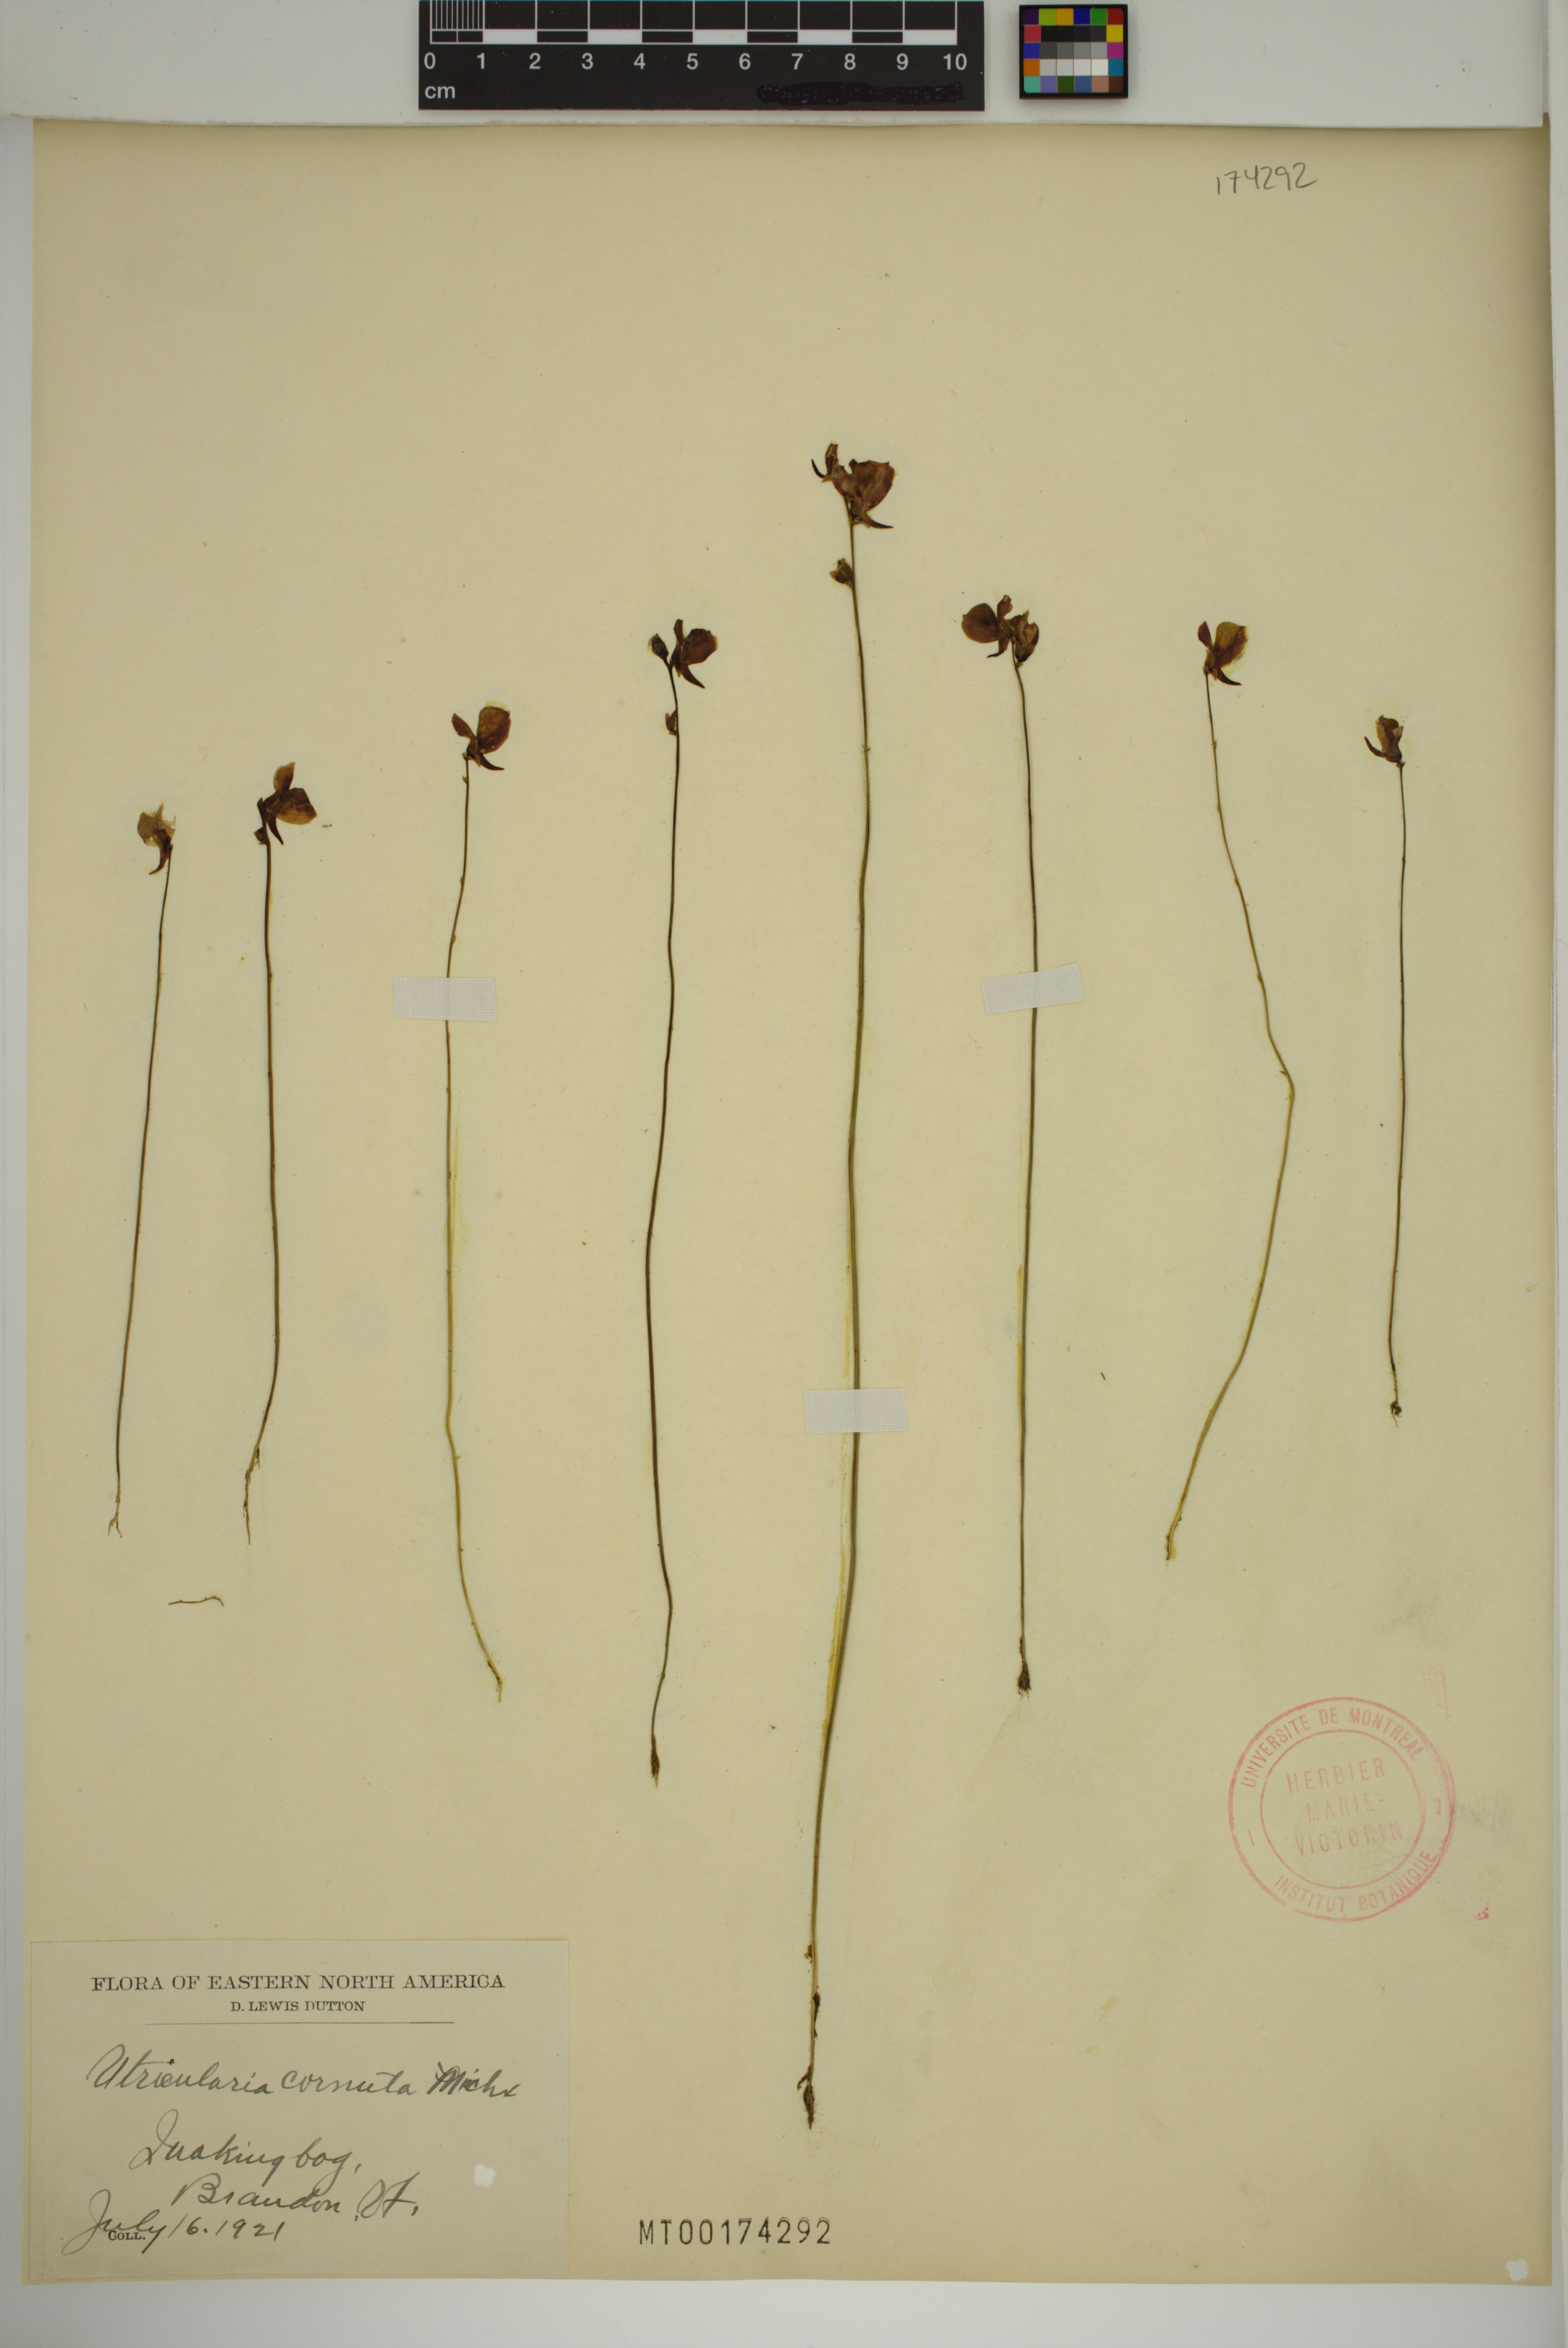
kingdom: Plantae
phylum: Tracheophyta
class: Magnoliopsida
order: Lamiales
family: Lentibulariaceae
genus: Utricularia
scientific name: Utricularia cornuta
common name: Horned bladderwort
